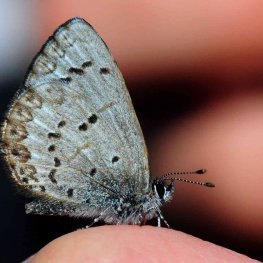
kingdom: Animalia
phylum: Arthropoda
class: Insecta
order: Lepidoptera
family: Lycaenidae
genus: Celastrina
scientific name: Celastrina lucia
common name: Northern Spring Azure
